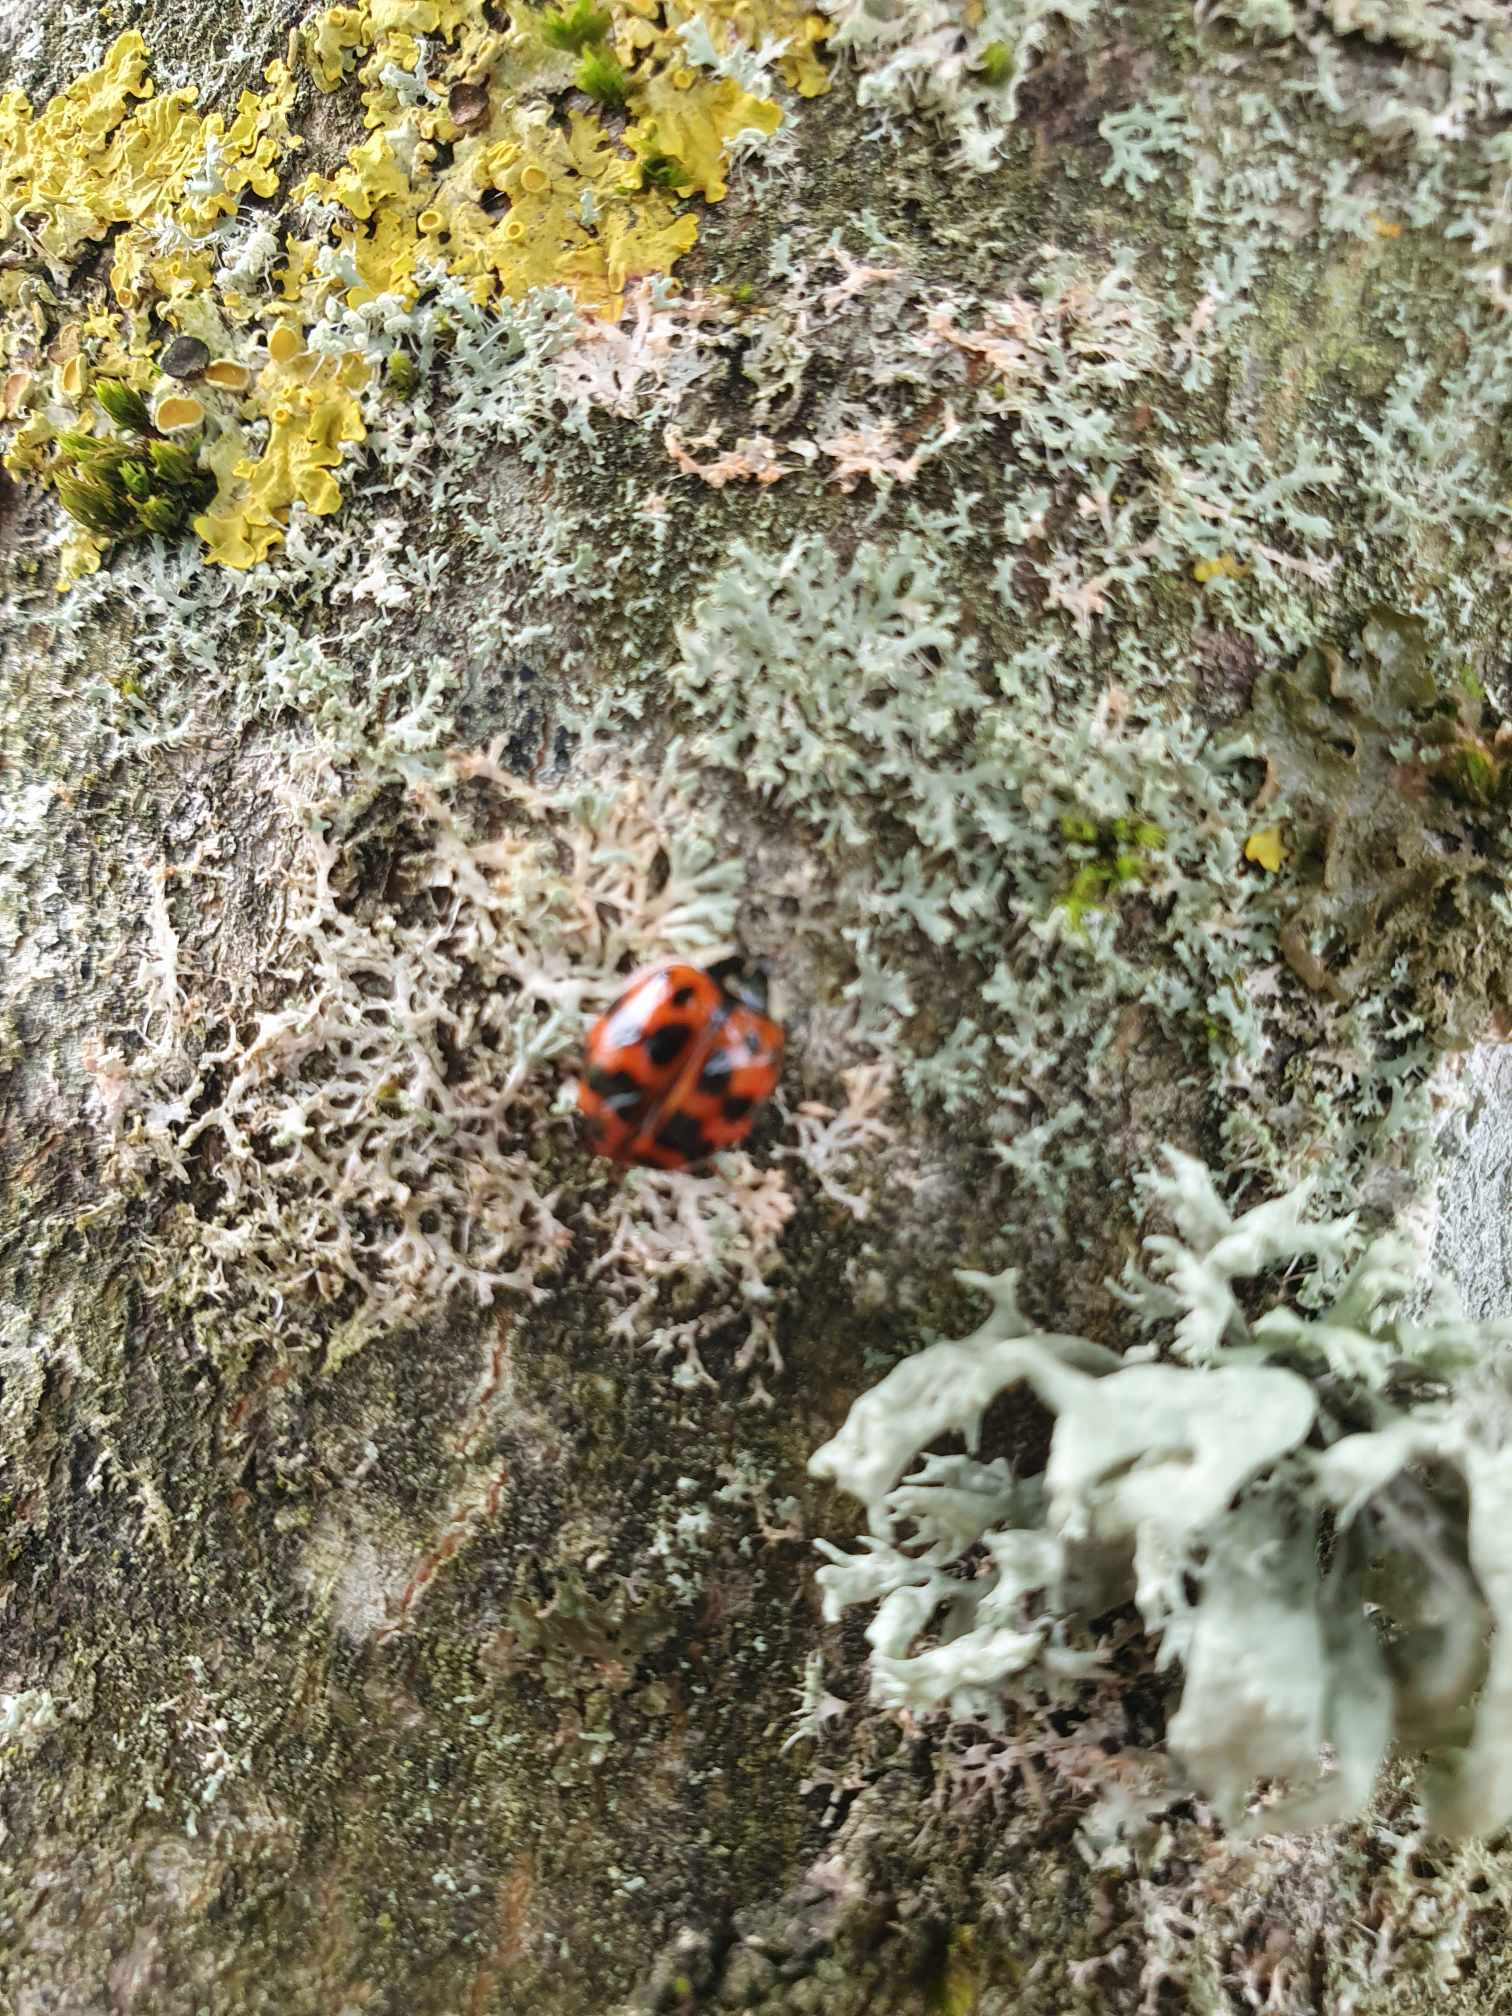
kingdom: Animalia
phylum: Arthropoda
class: Insecta
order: Coleoptera
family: Coccinellidae
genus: Harmonia
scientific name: Harmonia axyridis
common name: Harlekinmariehøne
